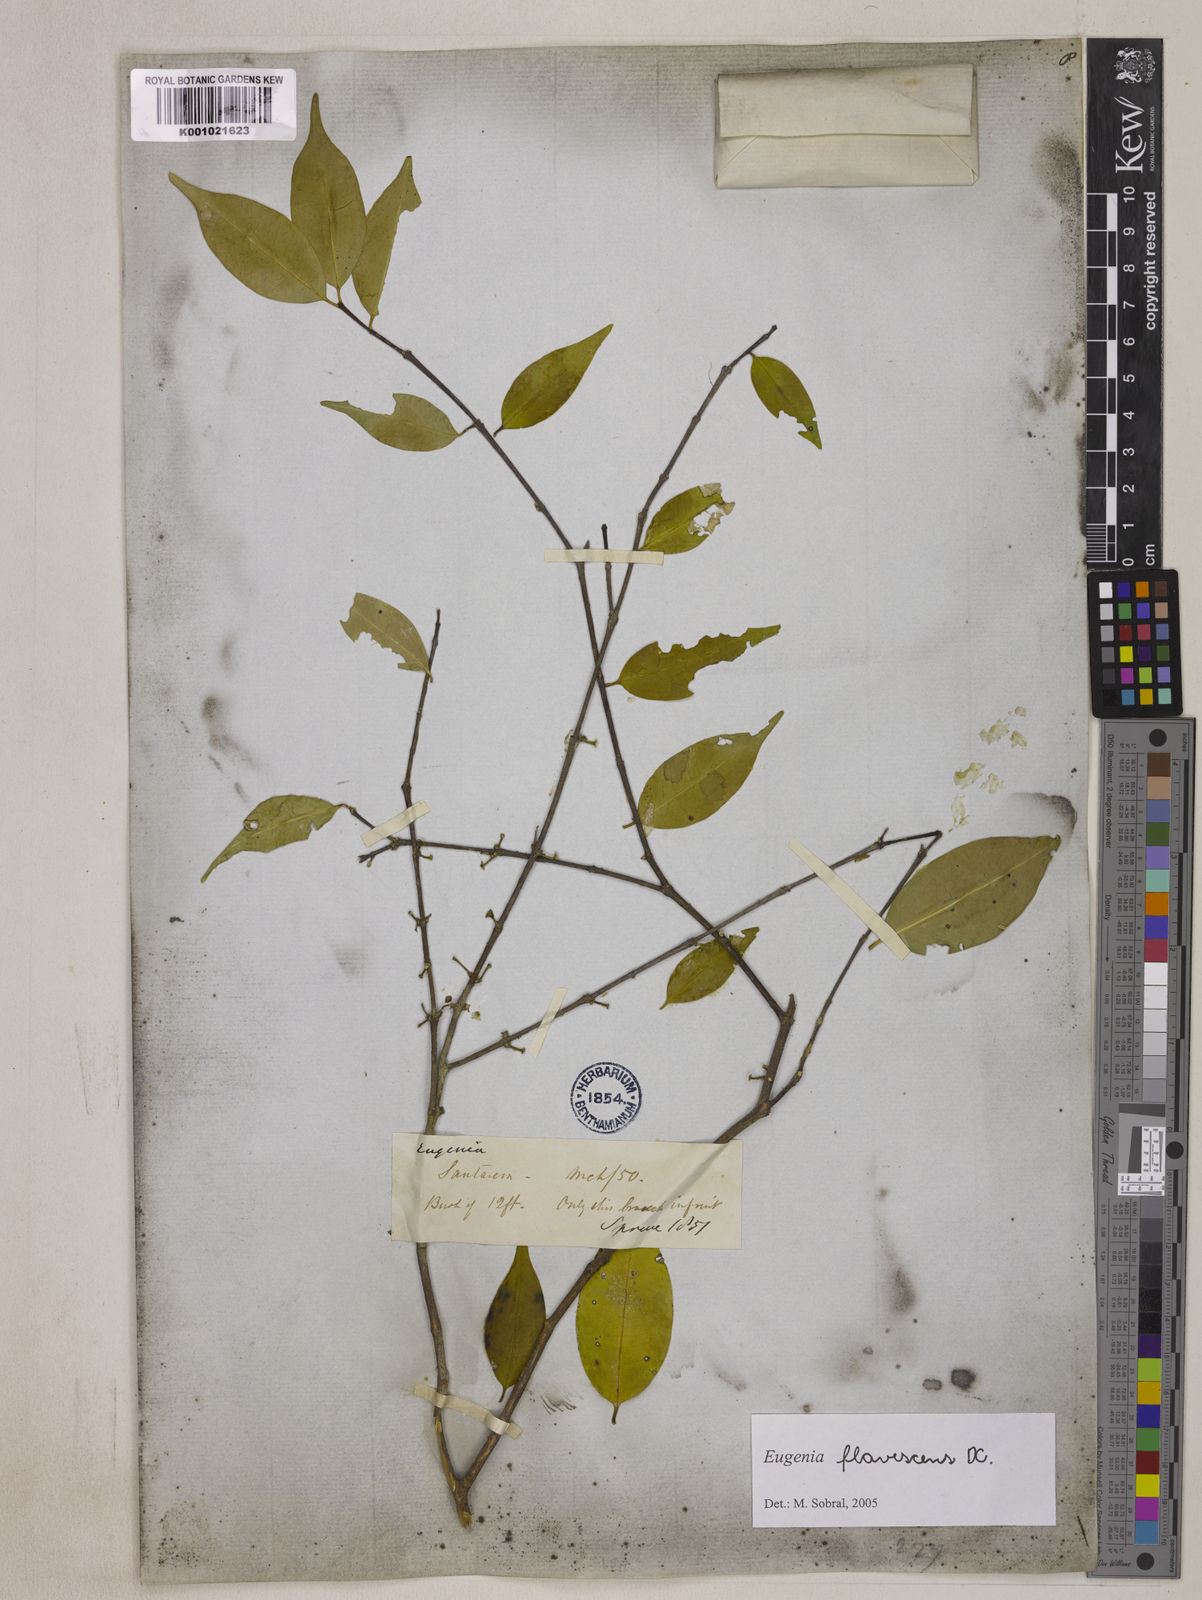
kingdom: Plantae
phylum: Tracheophyta
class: Magnoliopsida
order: Myrtales
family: Myrtaceae
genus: Eugenia
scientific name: Eugenia flavescens
